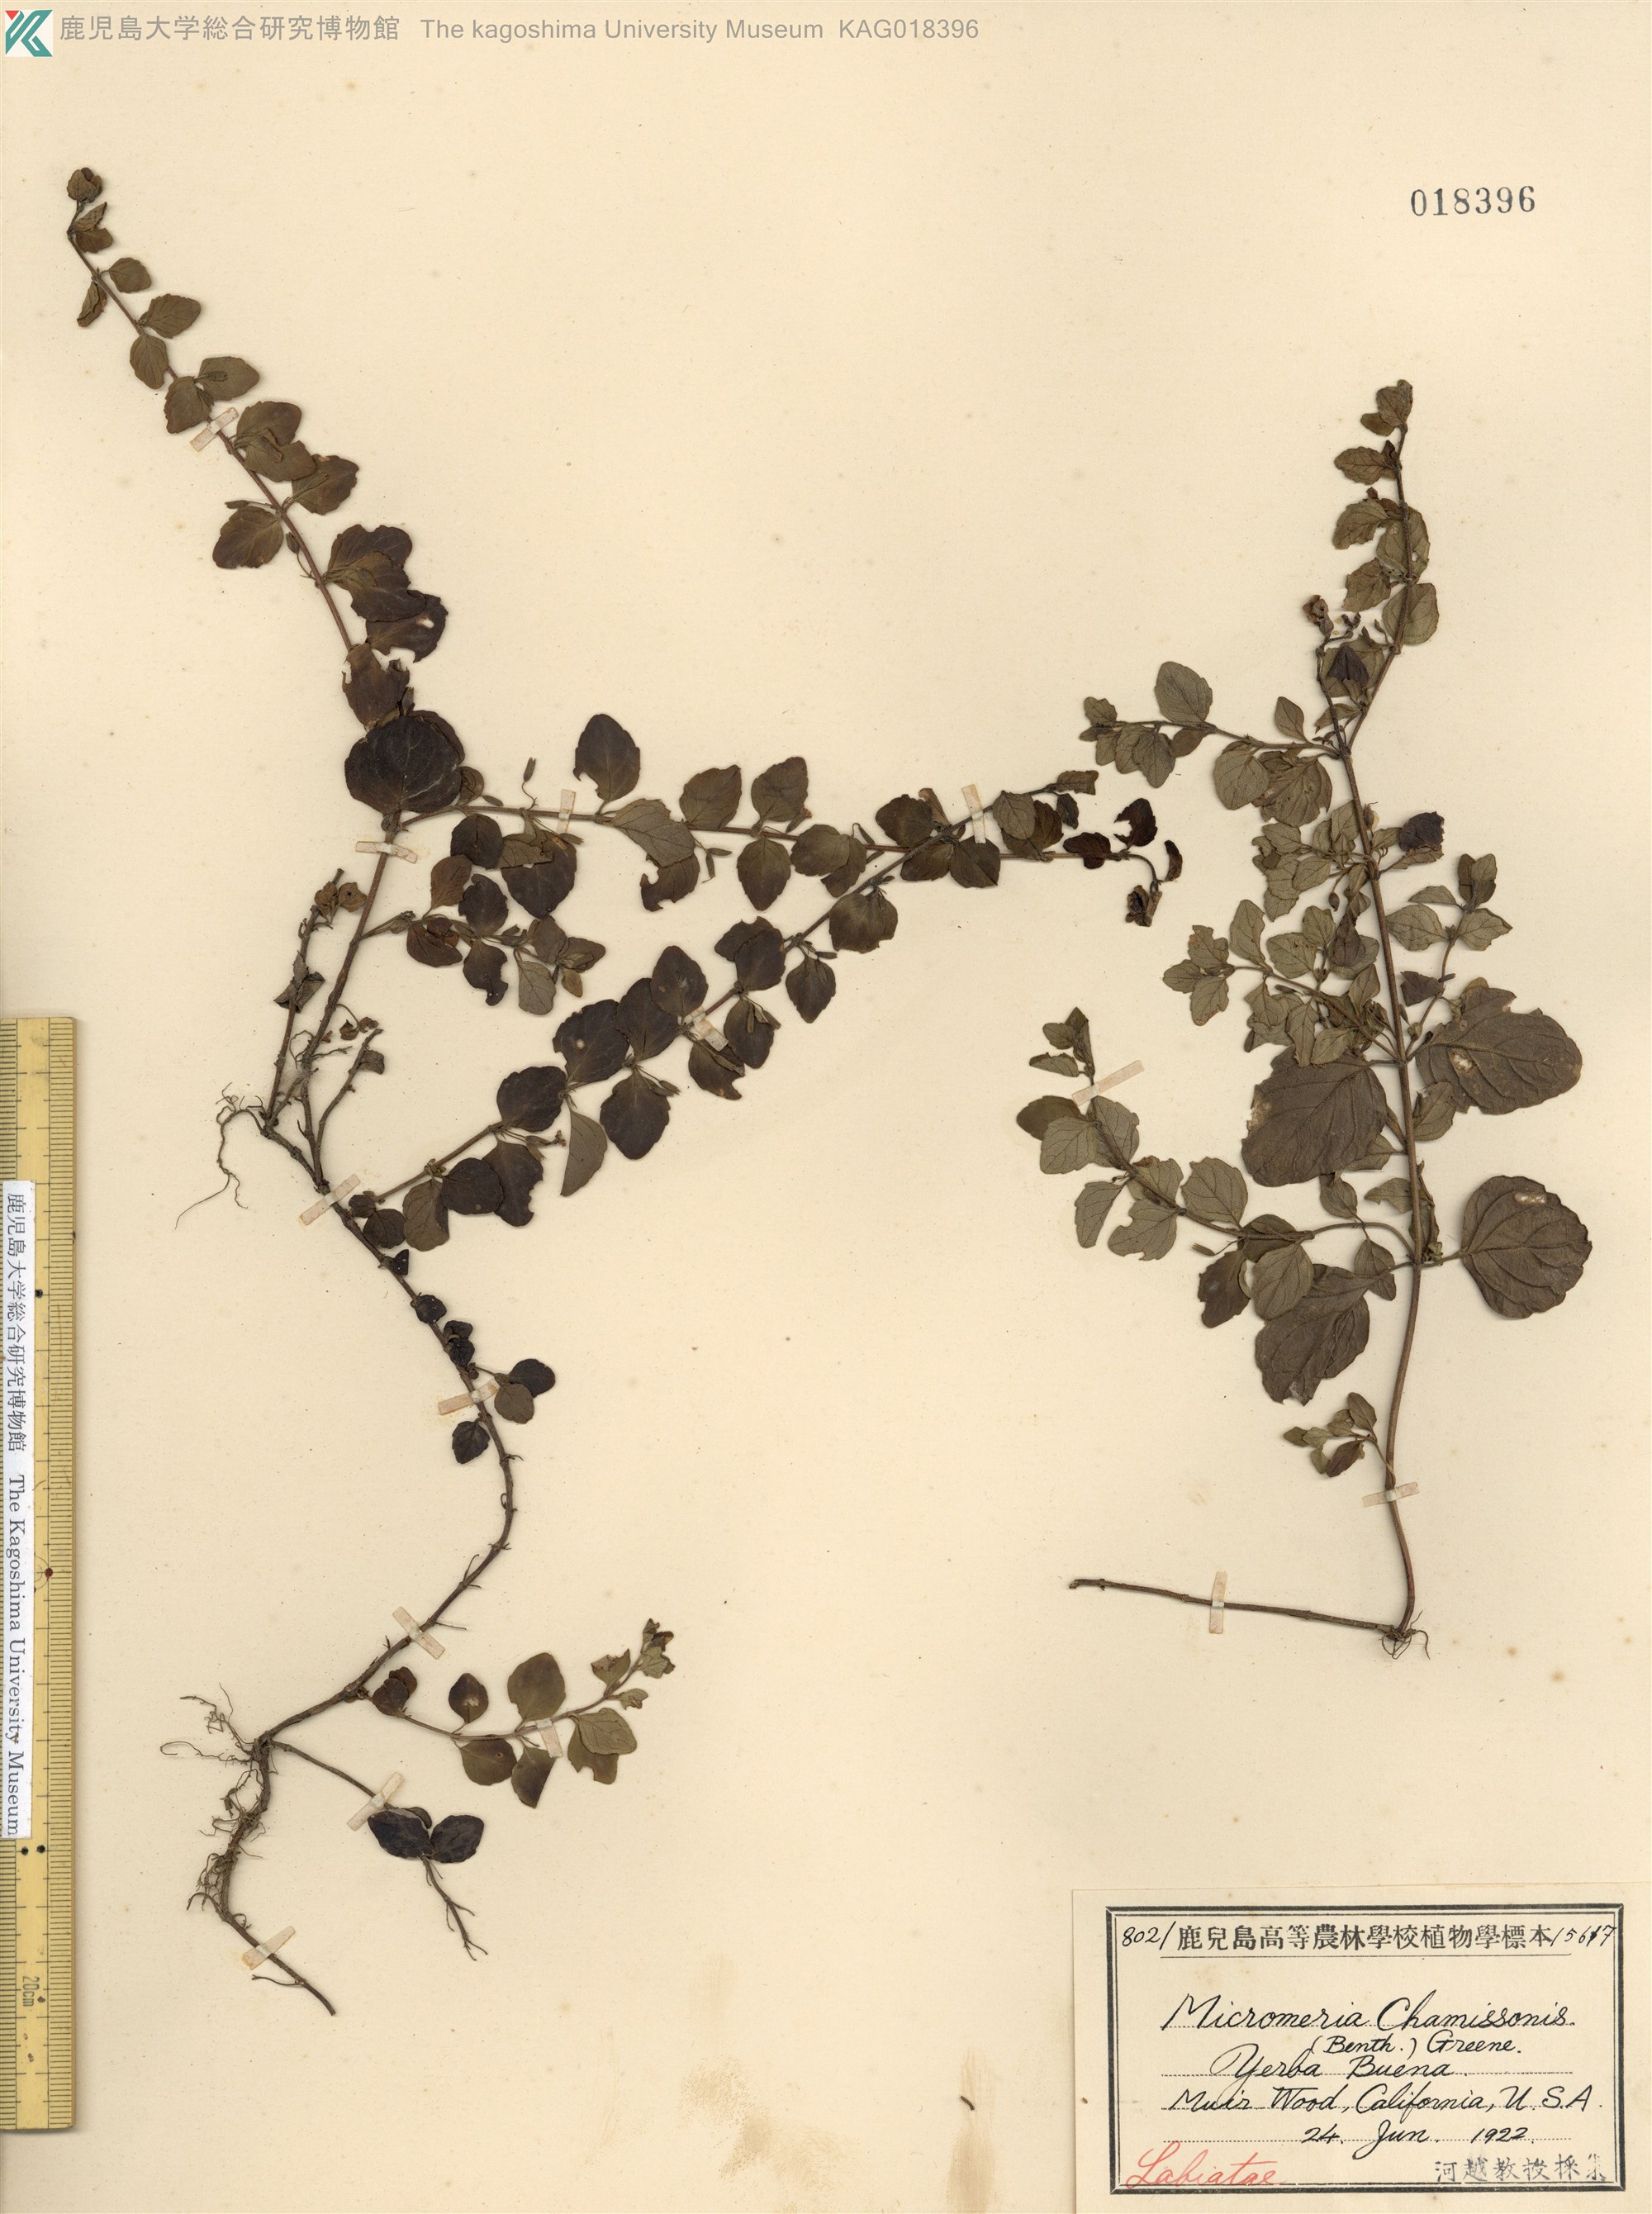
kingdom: Plantae
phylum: Tracheophyta
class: Magnoliopsida
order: Lamiales
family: Lamiaceae
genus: Micromeria
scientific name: Micromeria douglasii
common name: Yerba buena
